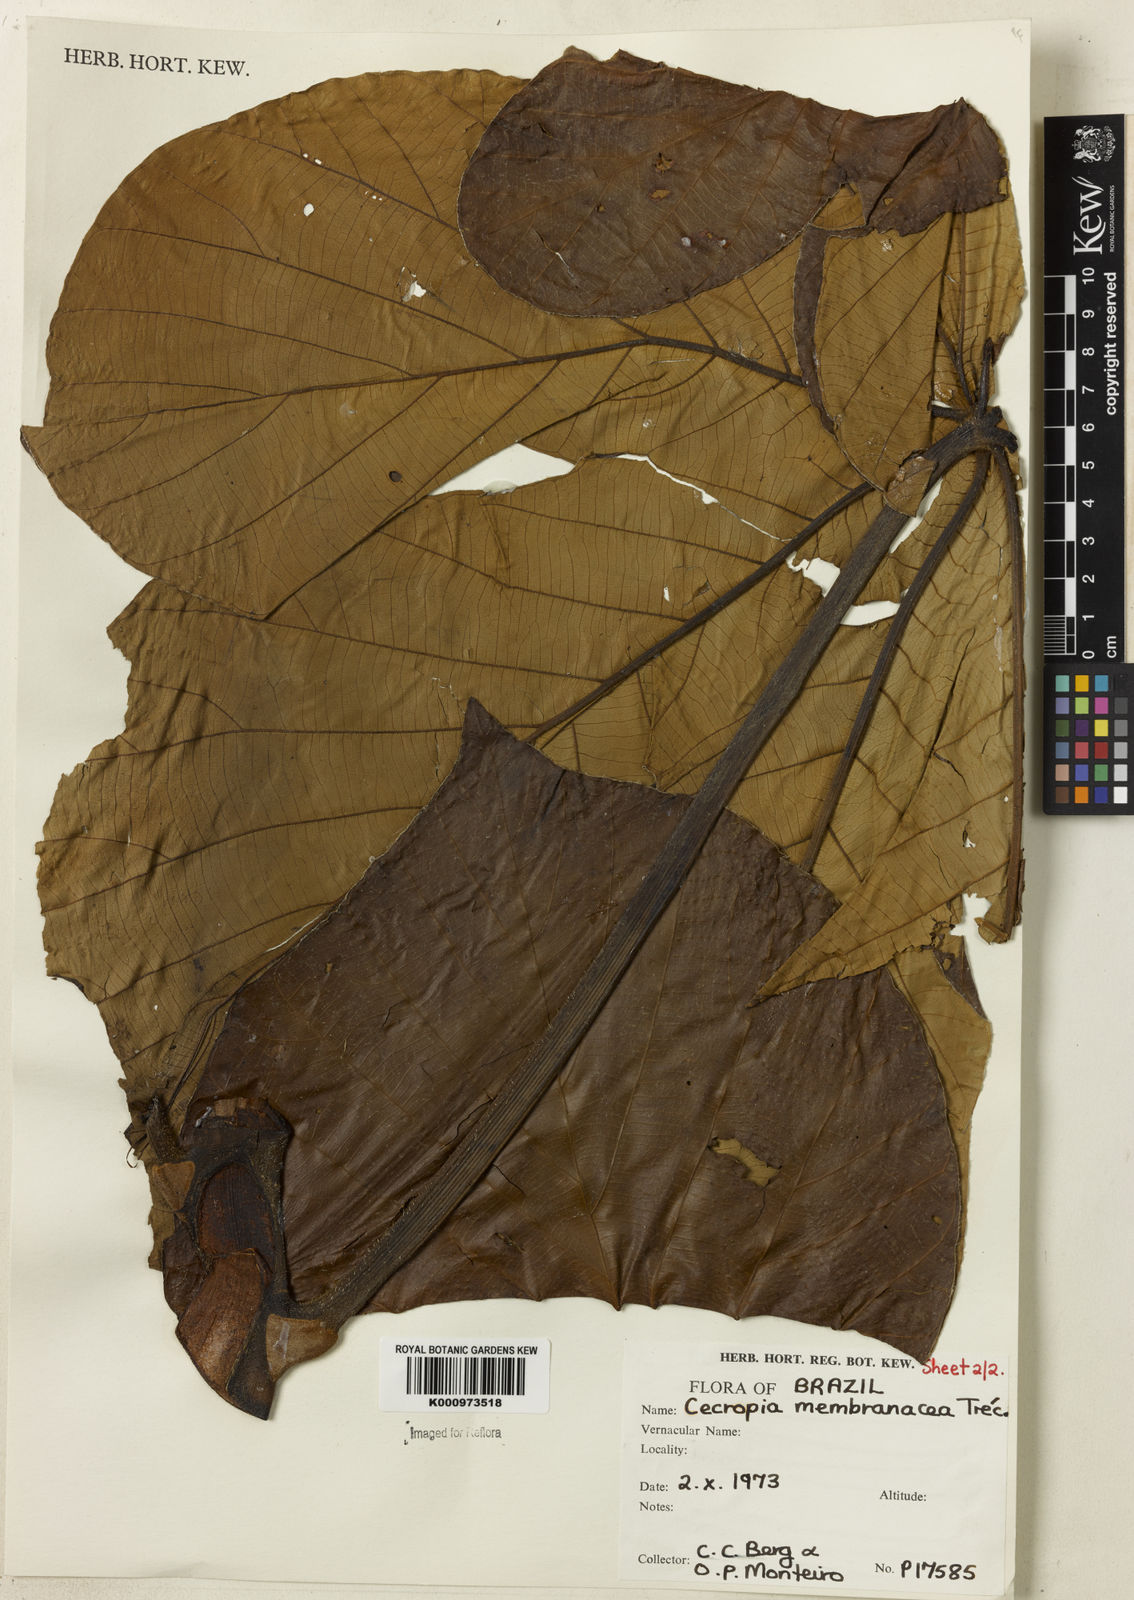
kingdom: Plantae
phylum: Tracheophyta
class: Magnoliopsida
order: Rosales
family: Urticaceae
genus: Cecropia
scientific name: Cecropia
